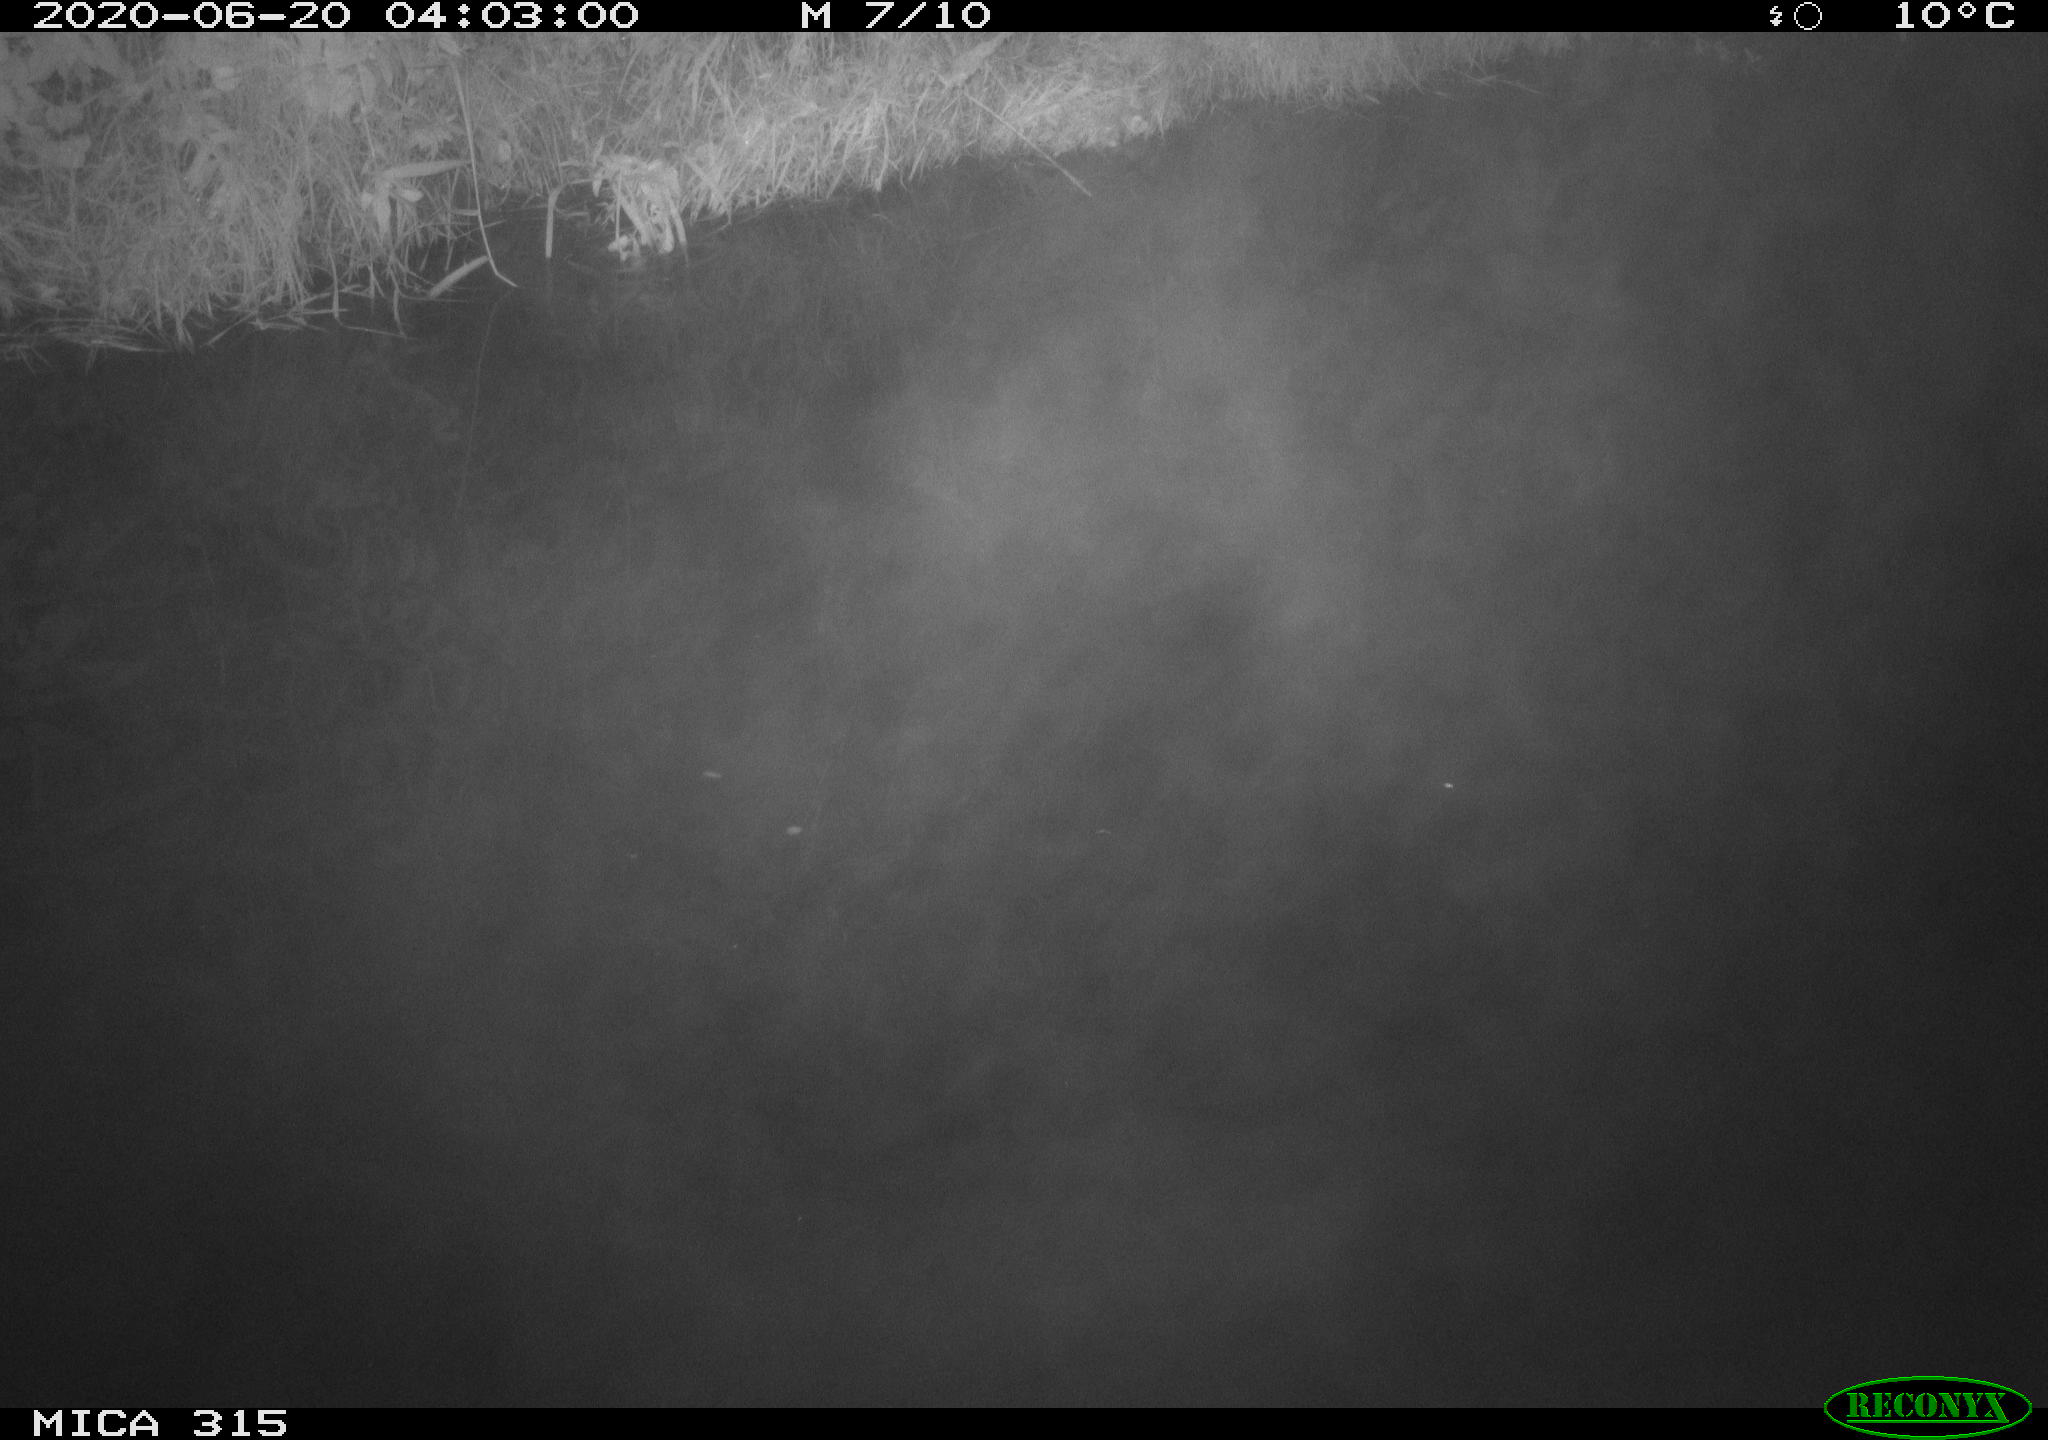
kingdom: Animalia
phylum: Chordata
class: Aves
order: Anseriformes
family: Anatidae
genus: Anas
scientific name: Anas platyrhynchos
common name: Mallard
